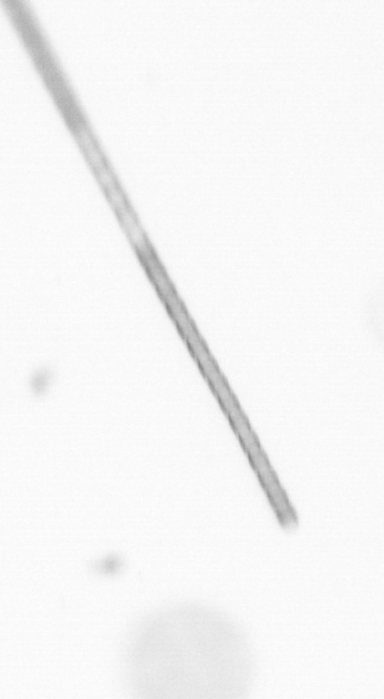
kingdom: Chromista
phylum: Ochrophyta
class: Bacillariophyceae
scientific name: Bacillariophyceae
